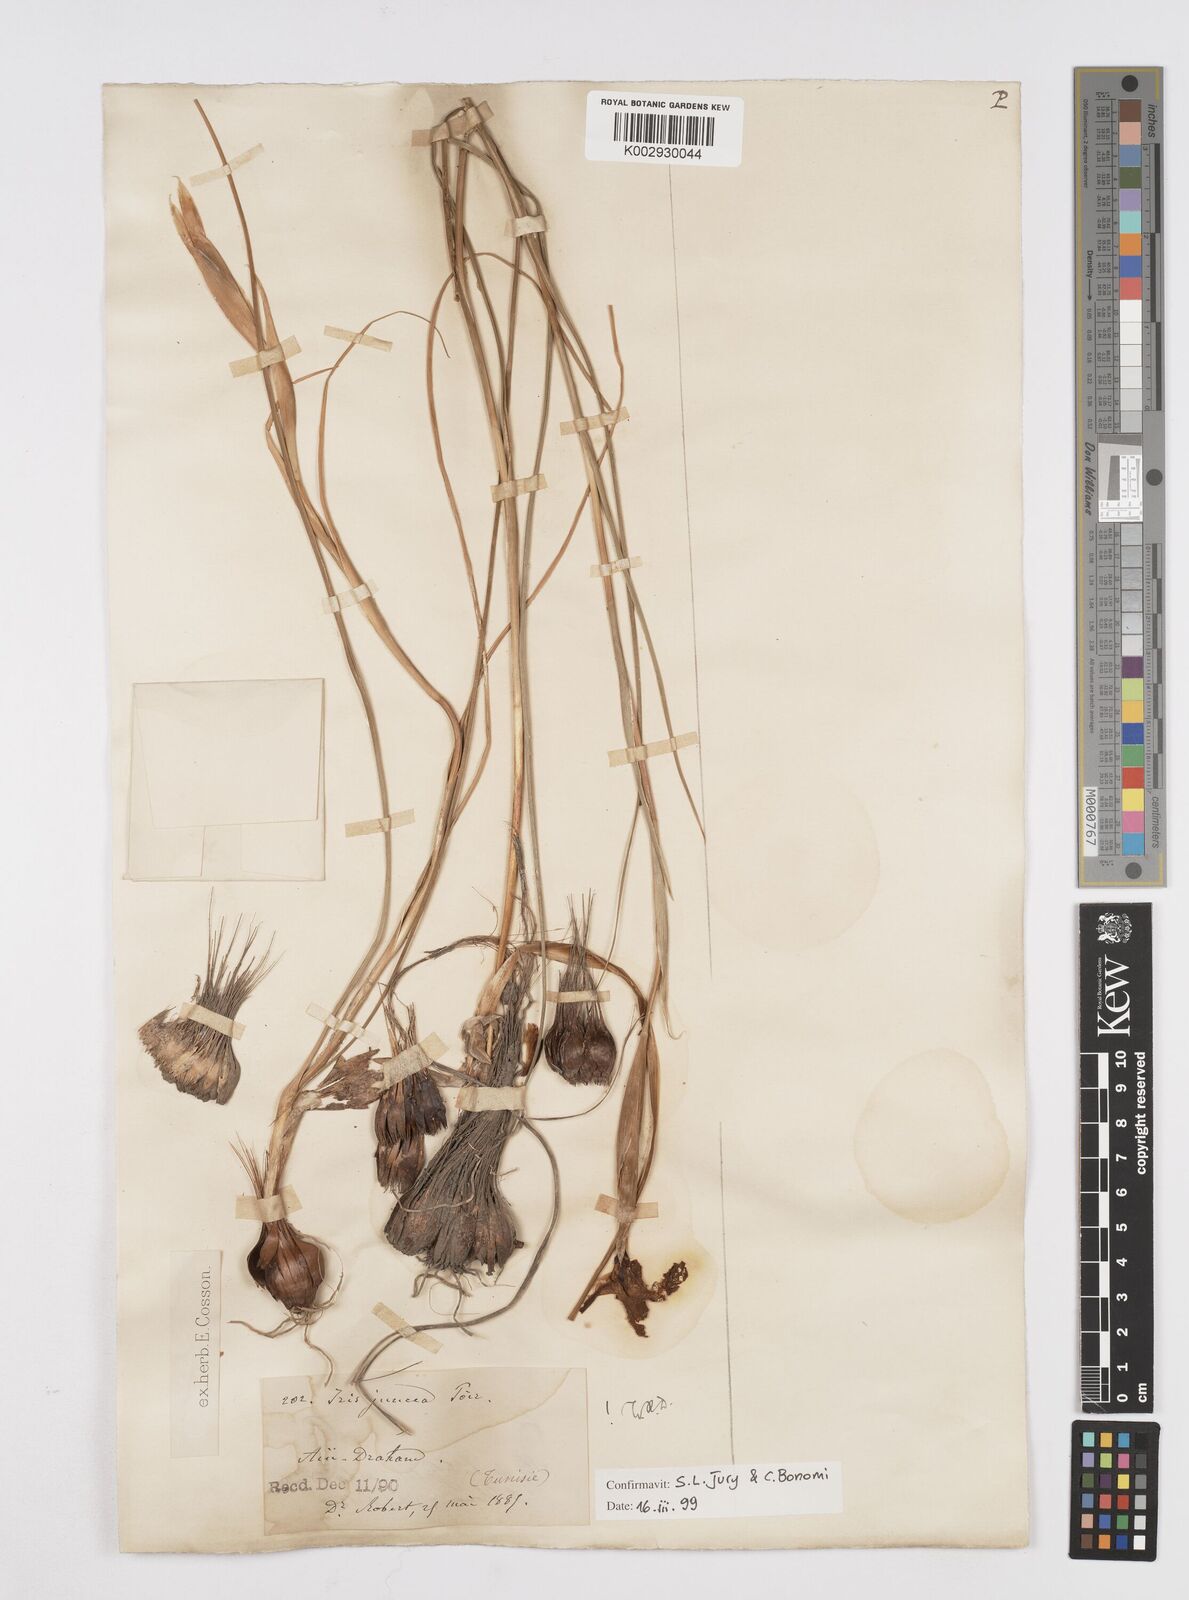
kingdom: Plantae
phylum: Tracheophyta
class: Liliopsida
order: Asparagales
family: Iridaceae
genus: Iris
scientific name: Iris juncea
